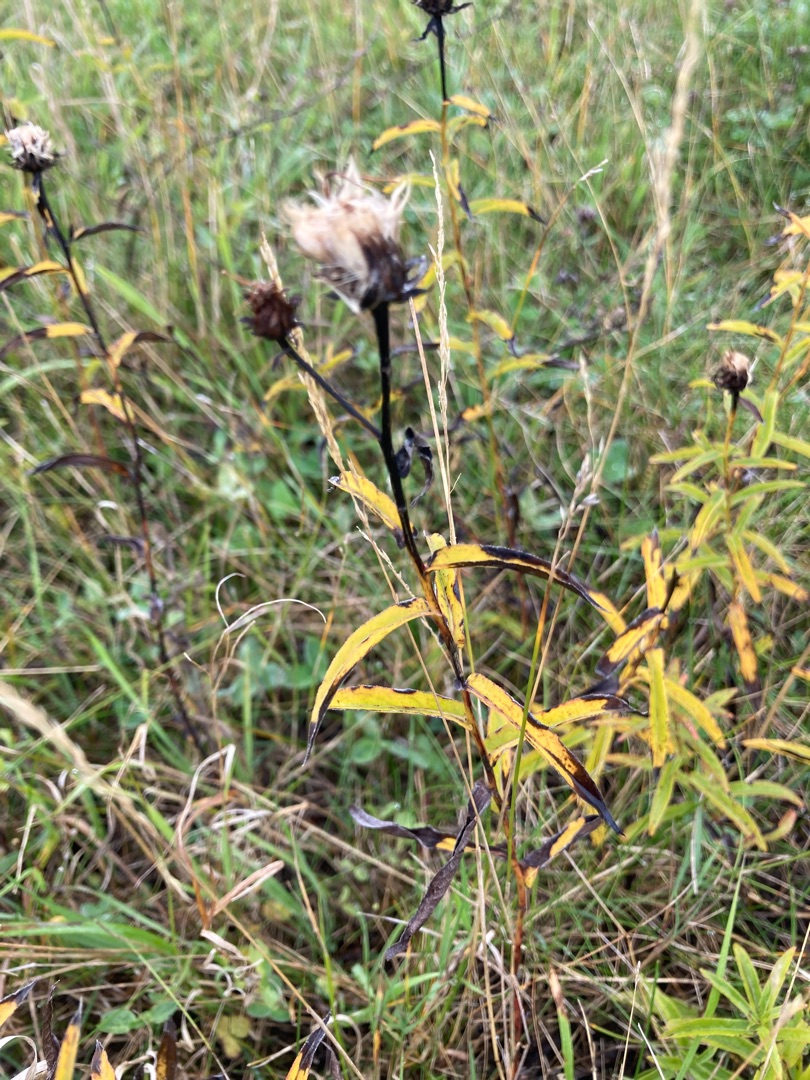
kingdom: Plantae
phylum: Tracheophyta
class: Magnoliopsida
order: Asterales
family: Asteraceae
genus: Pentanema
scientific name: Pentanema salicinum
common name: Pile-alant
